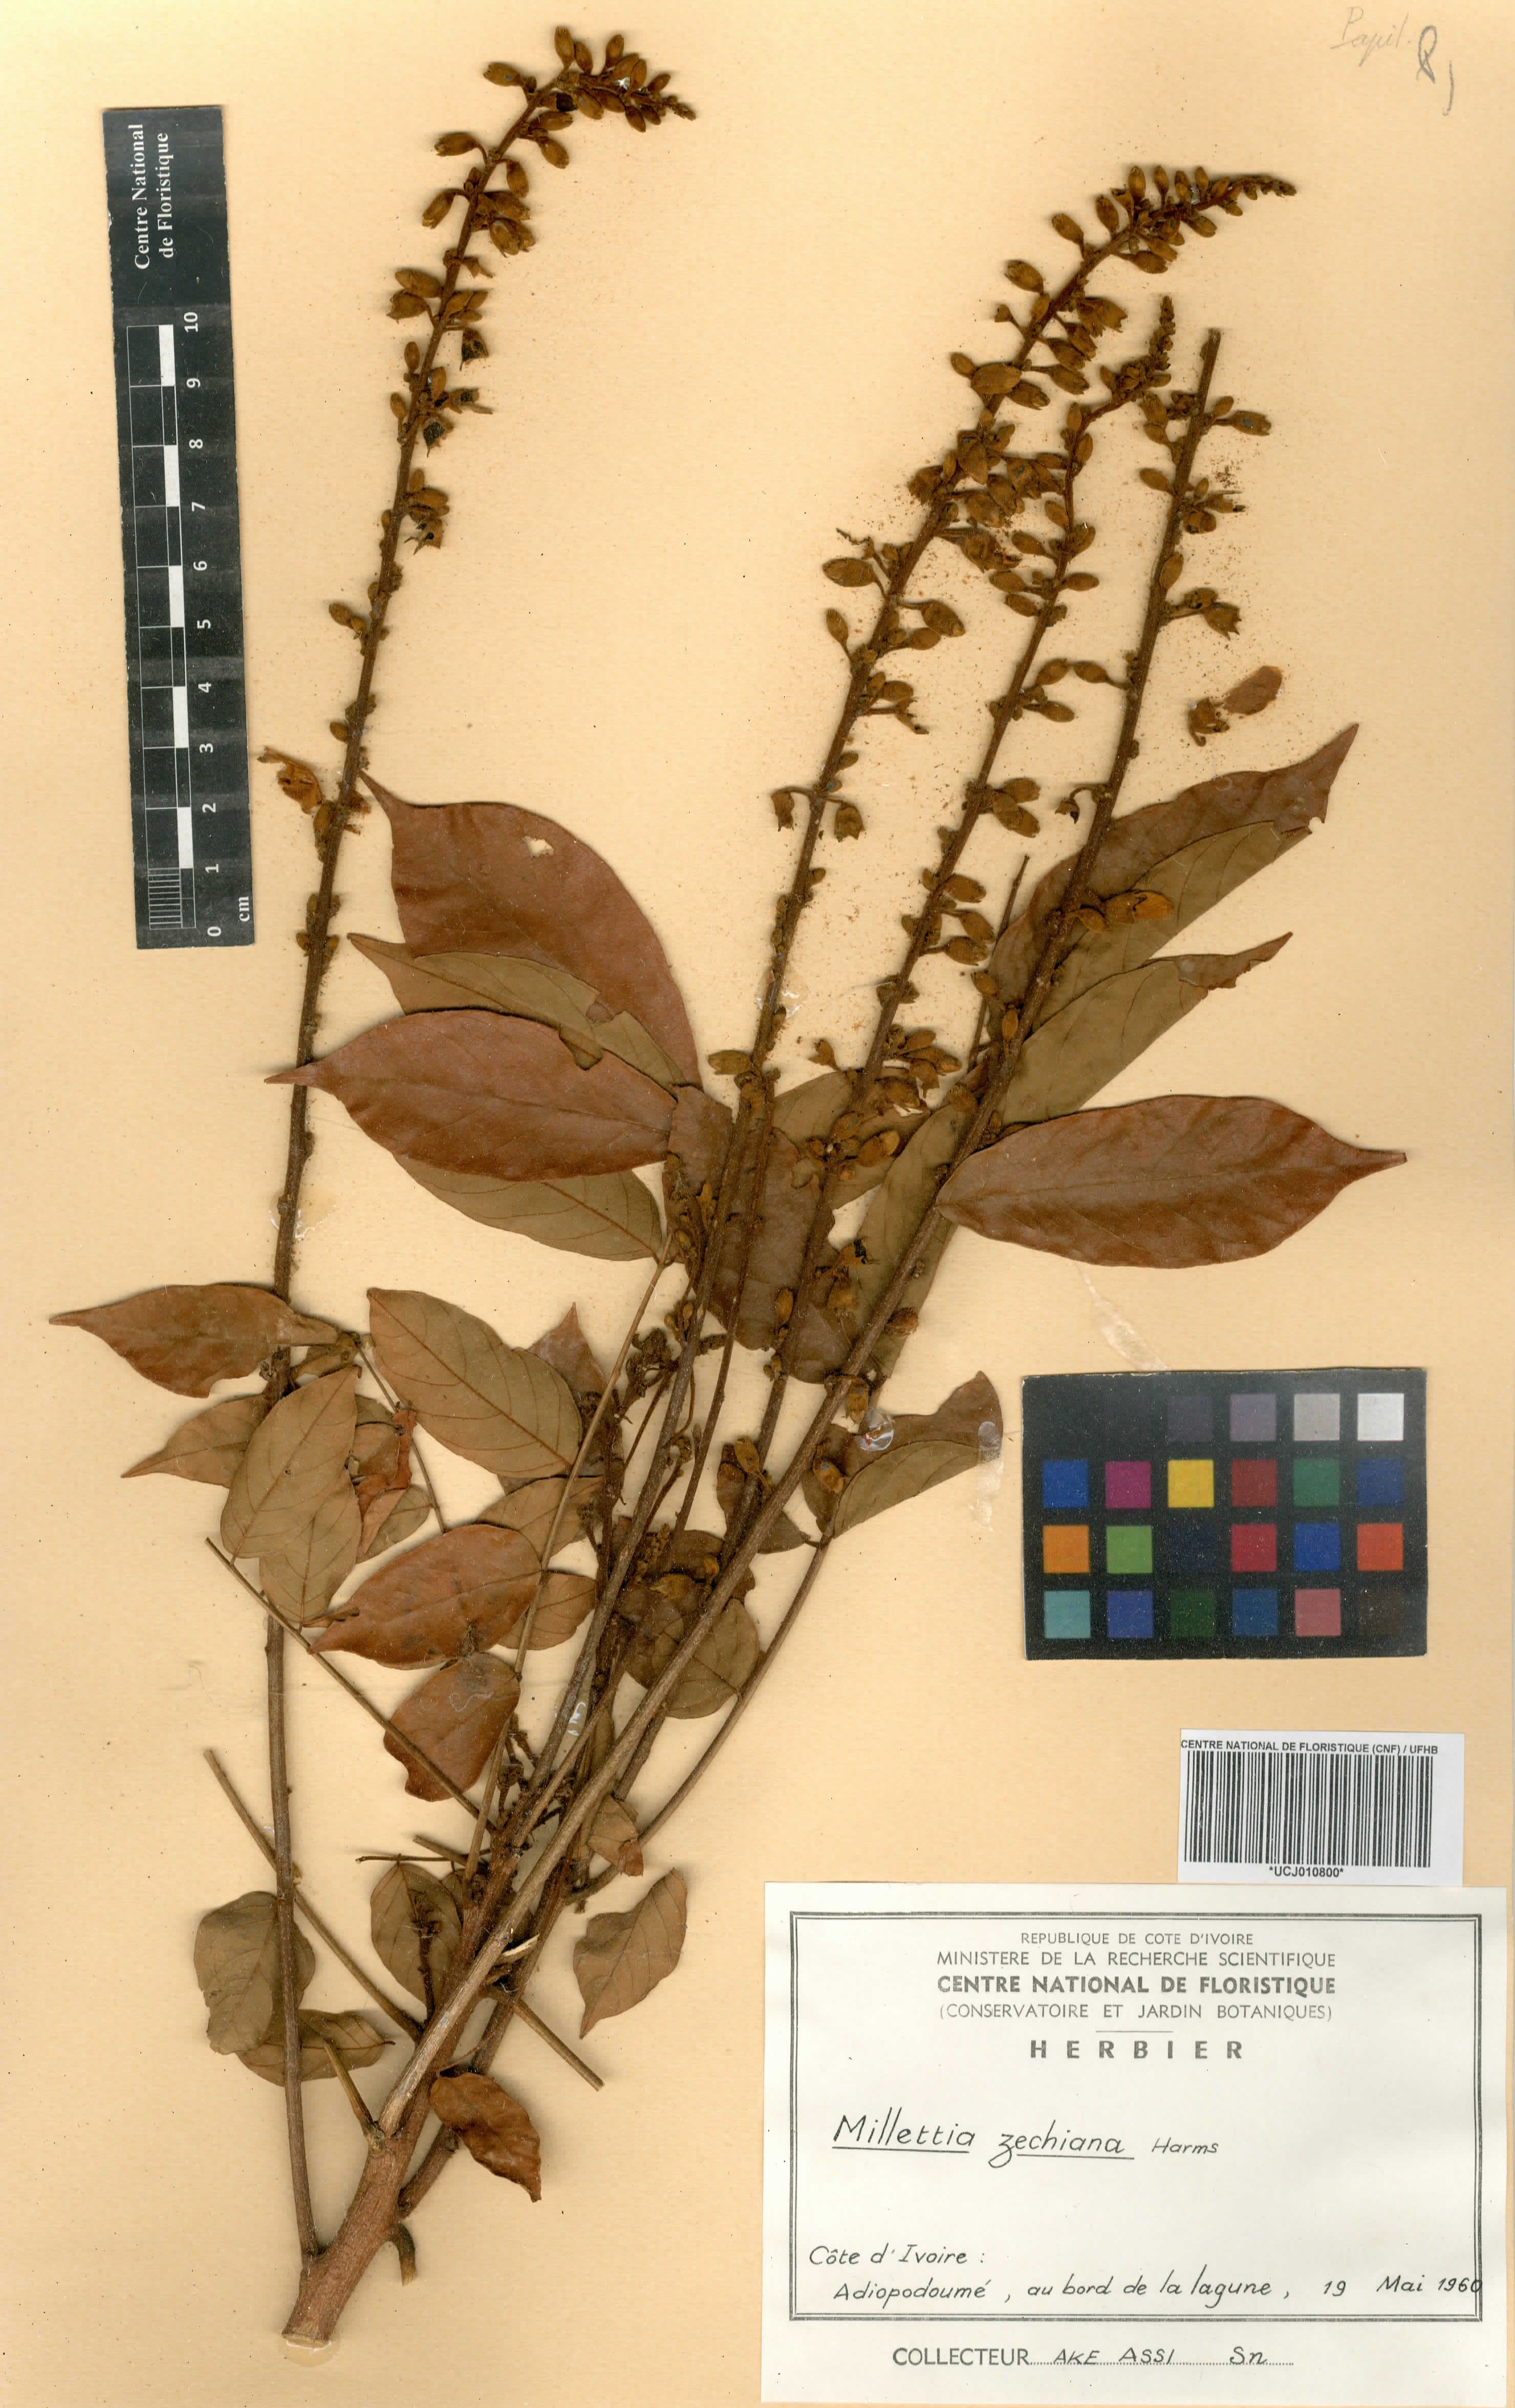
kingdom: Plantae
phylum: Tracheophyta
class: Magnoliopsida
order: Fabales
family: Fabaceae
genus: Millettia
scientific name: Millettia zechiana
